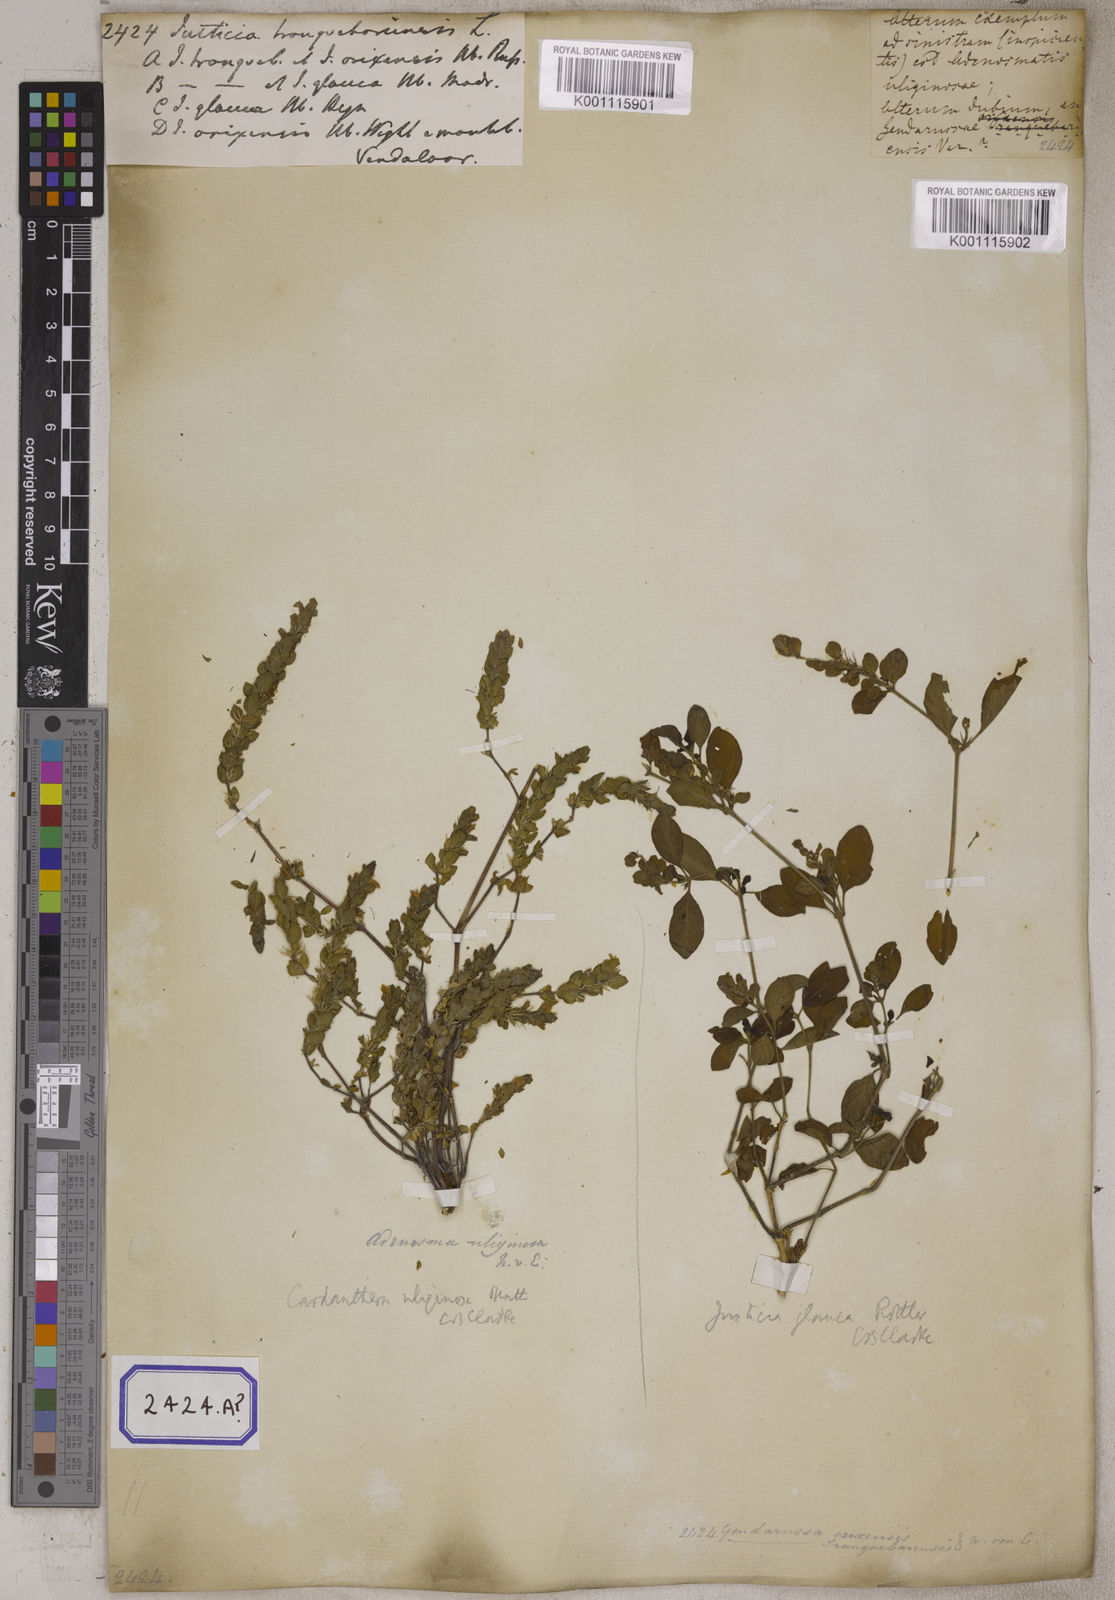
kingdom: Plantae
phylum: Tracheophyta
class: Magnoliopsida
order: Lamiales
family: Acanthaceae
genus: Justicia
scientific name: Justicia tranquebariensis
